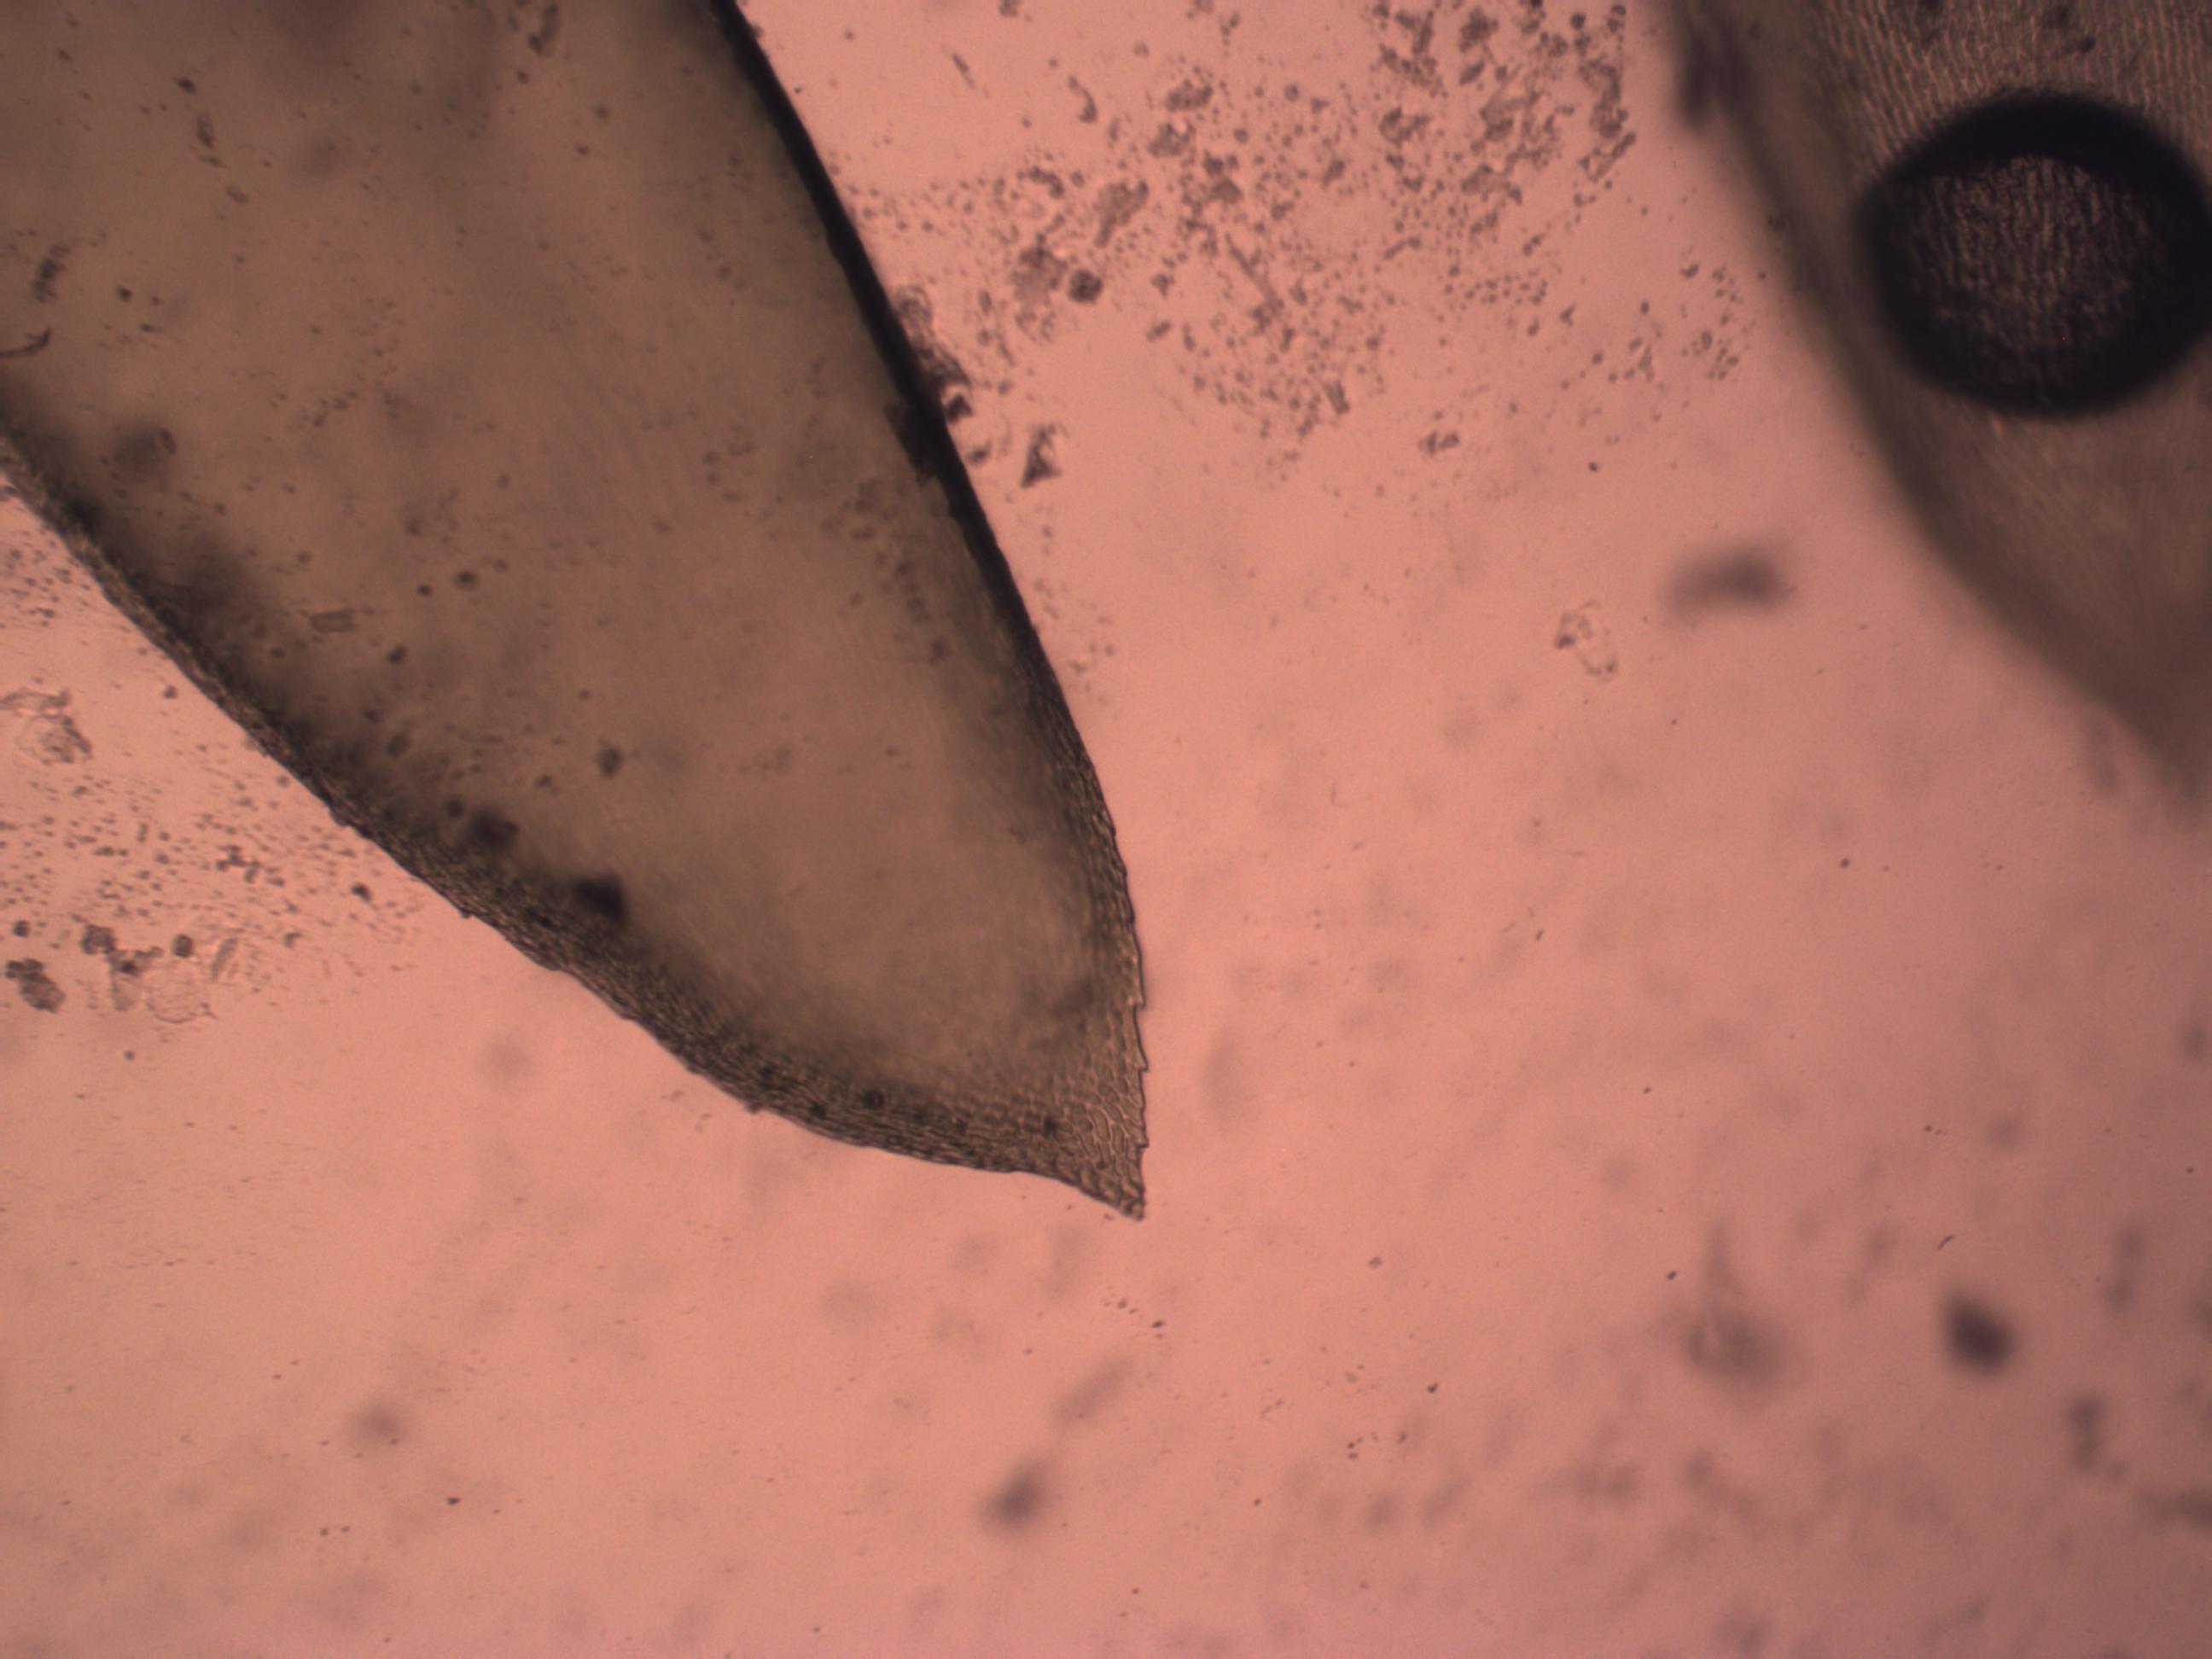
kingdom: Plantae
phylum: Bryophyta
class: Bryopsida
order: Hypnales
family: Lembophyllaceae
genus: Isothecium
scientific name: Isothecium alopecuroides
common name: Stor stammemos
